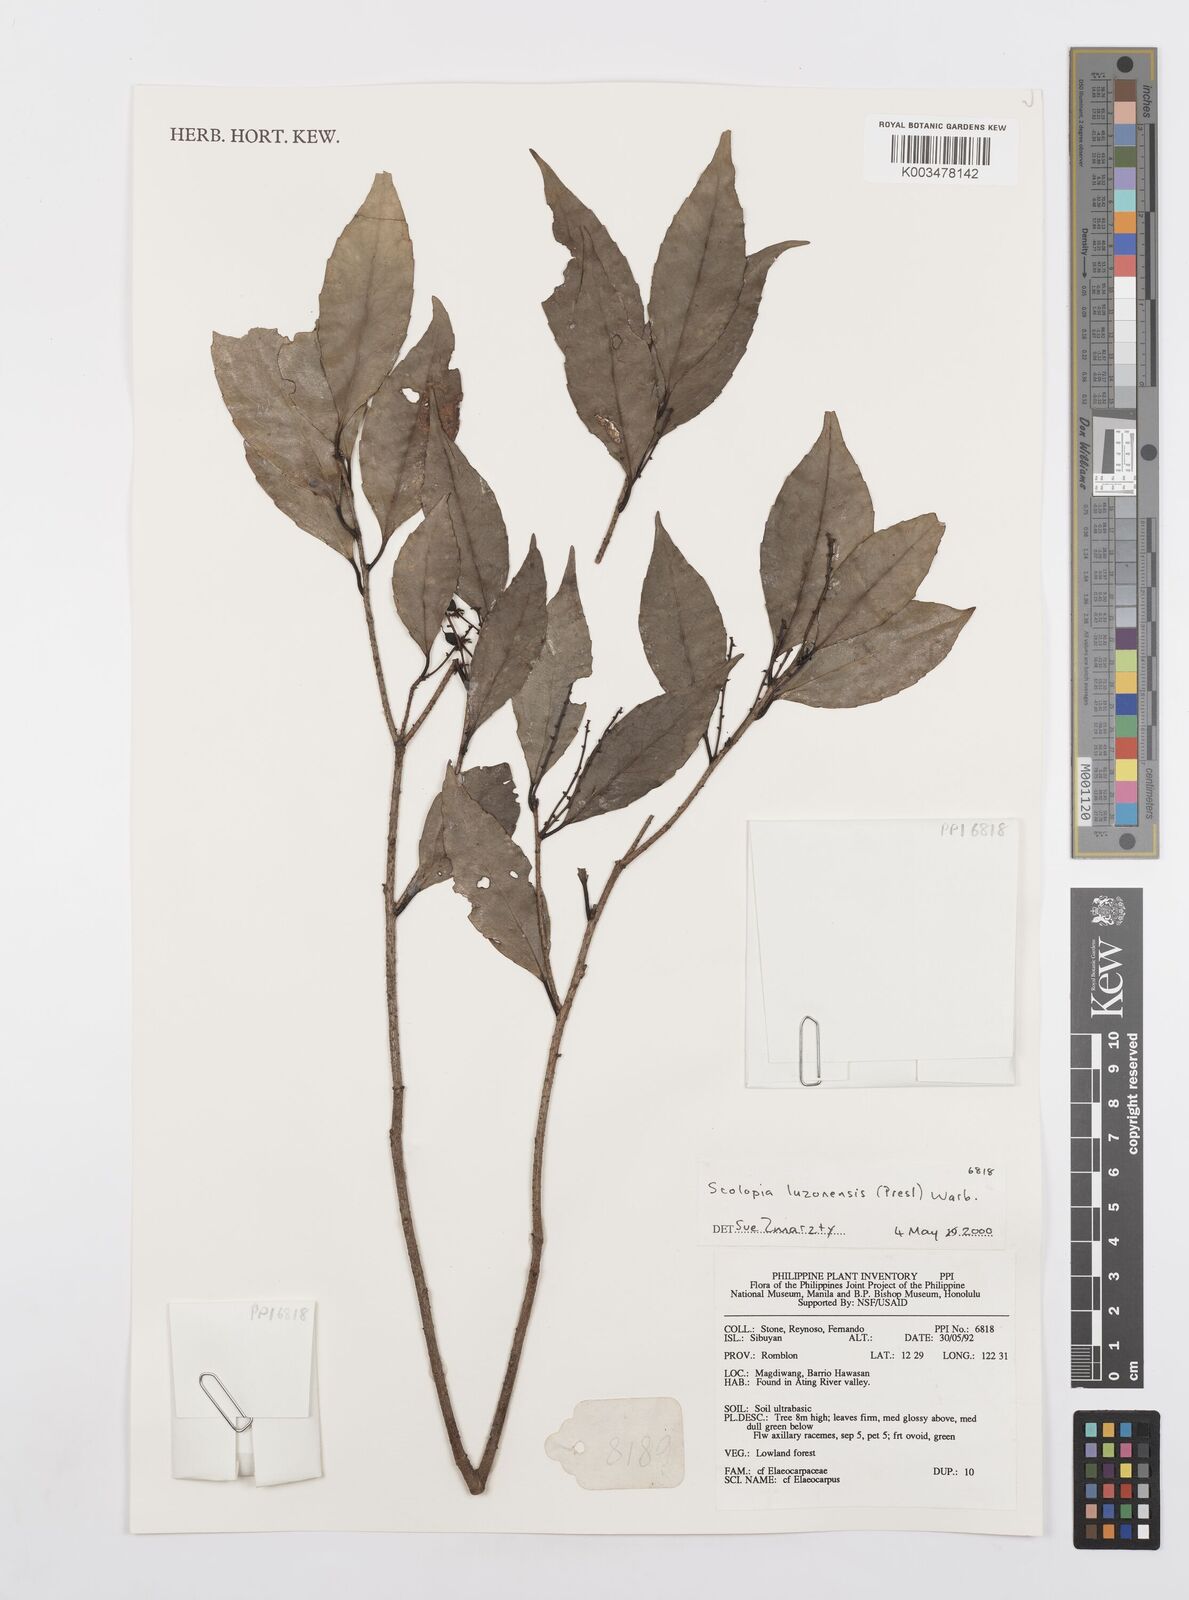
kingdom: Plantae
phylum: Tracheophyta
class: Magnoliopsida
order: Malpighiales
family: Salicaceae
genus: Scolopia
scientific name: Scolopia luzonensis
